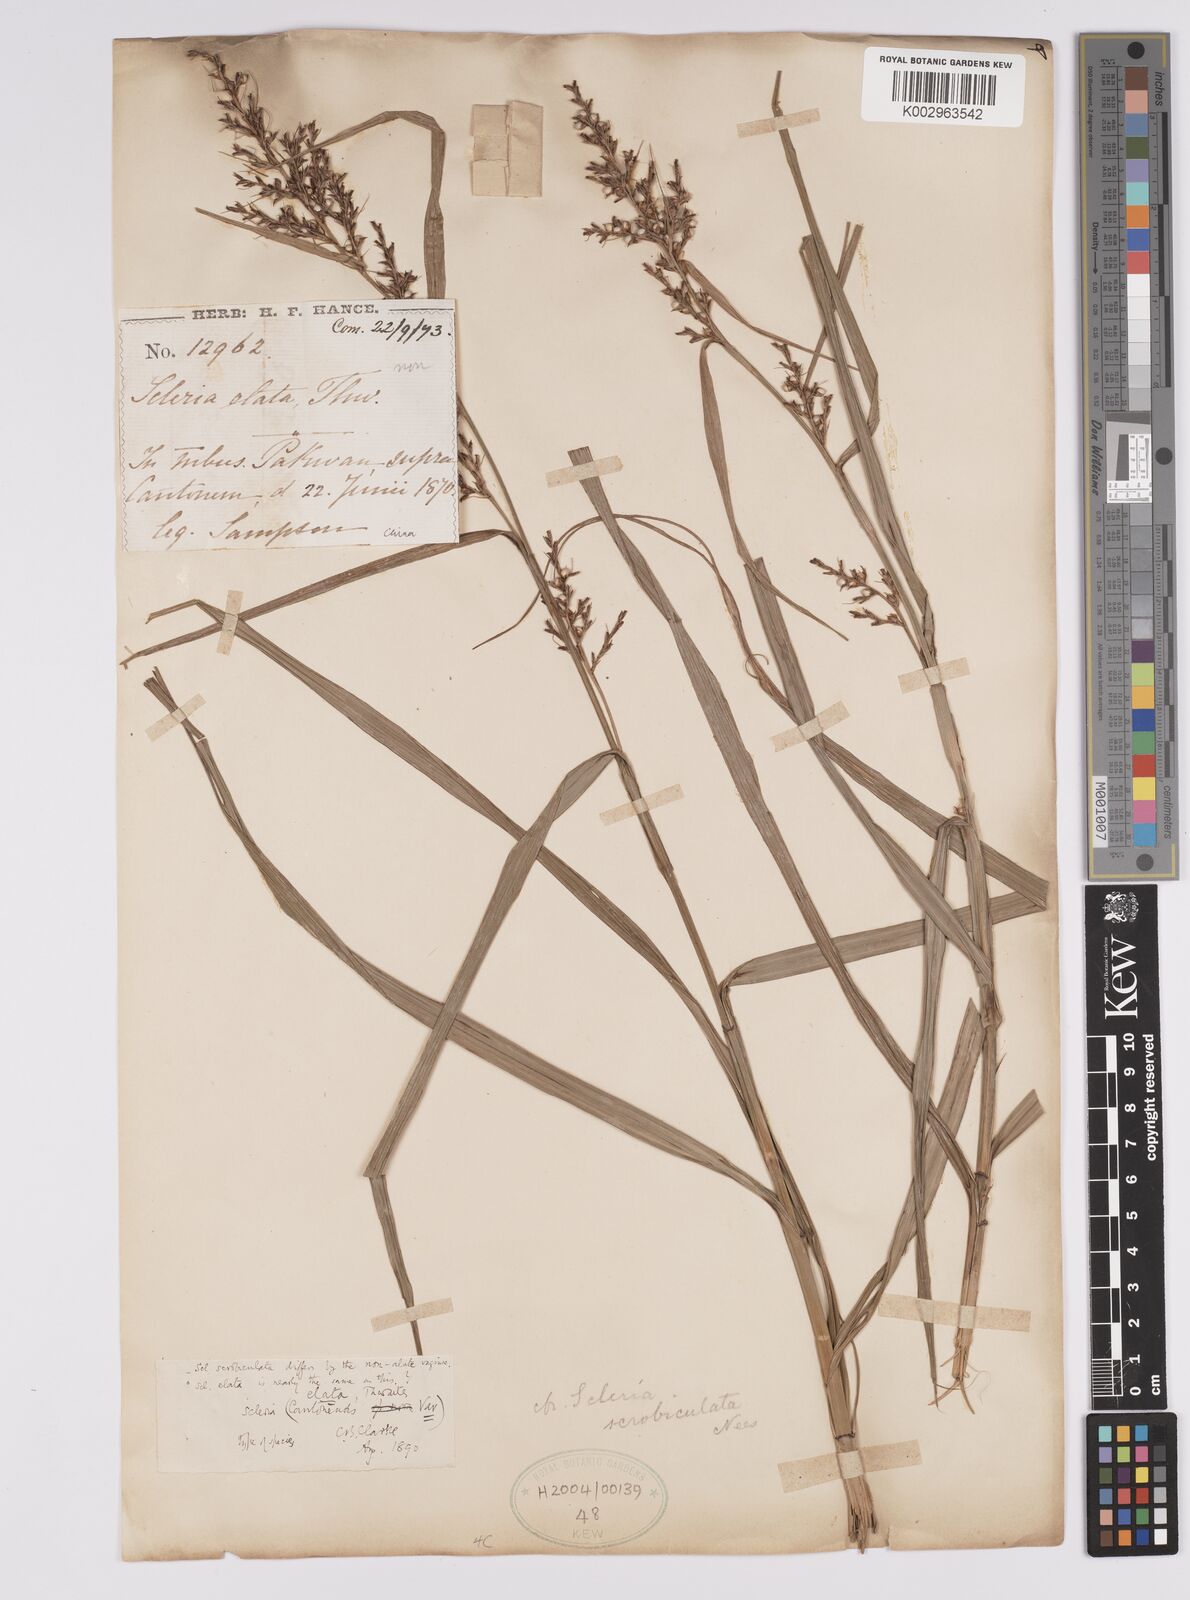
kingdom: Plantae
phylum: Tracheophyta
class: Liliopsida
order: Poales
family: Cyperaceae
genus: Scleria
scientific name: Scleria scrobiculata
